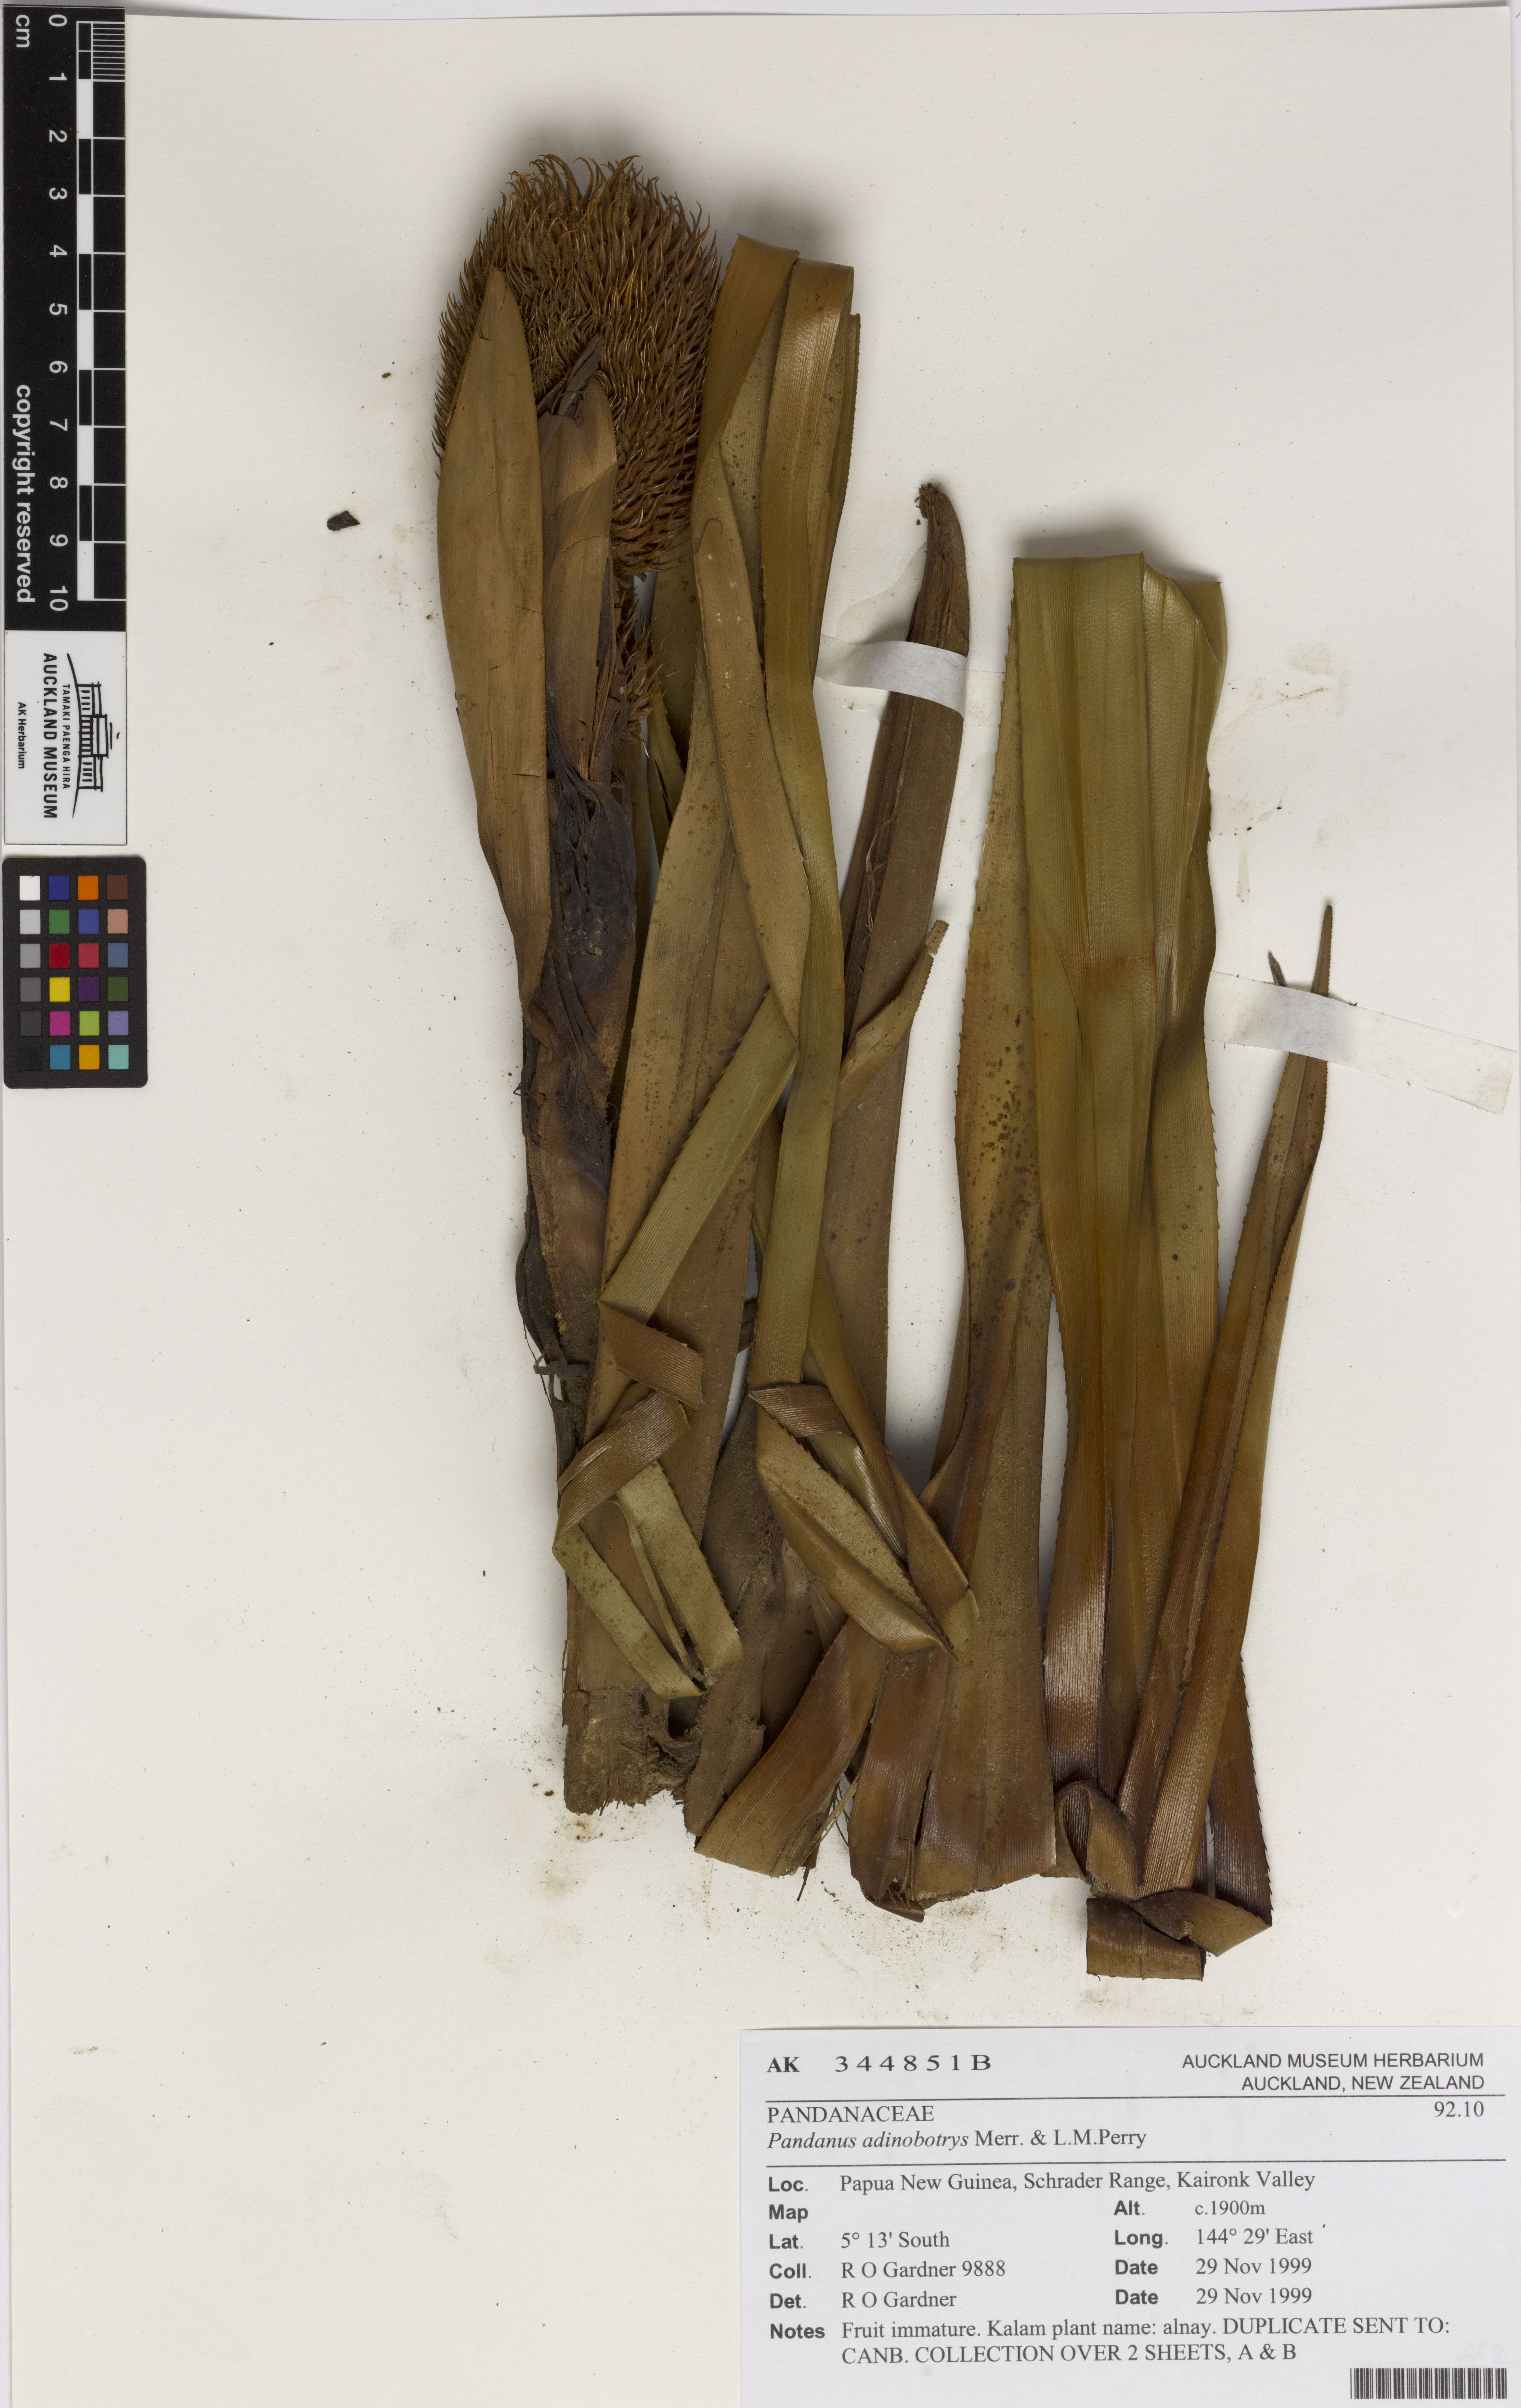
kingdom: Plantae
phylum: Tracheophyta
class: Liliopsida
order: Pandanales
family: Pandanaceae
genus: Benstonea
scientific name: Benstonea adinobotrys
